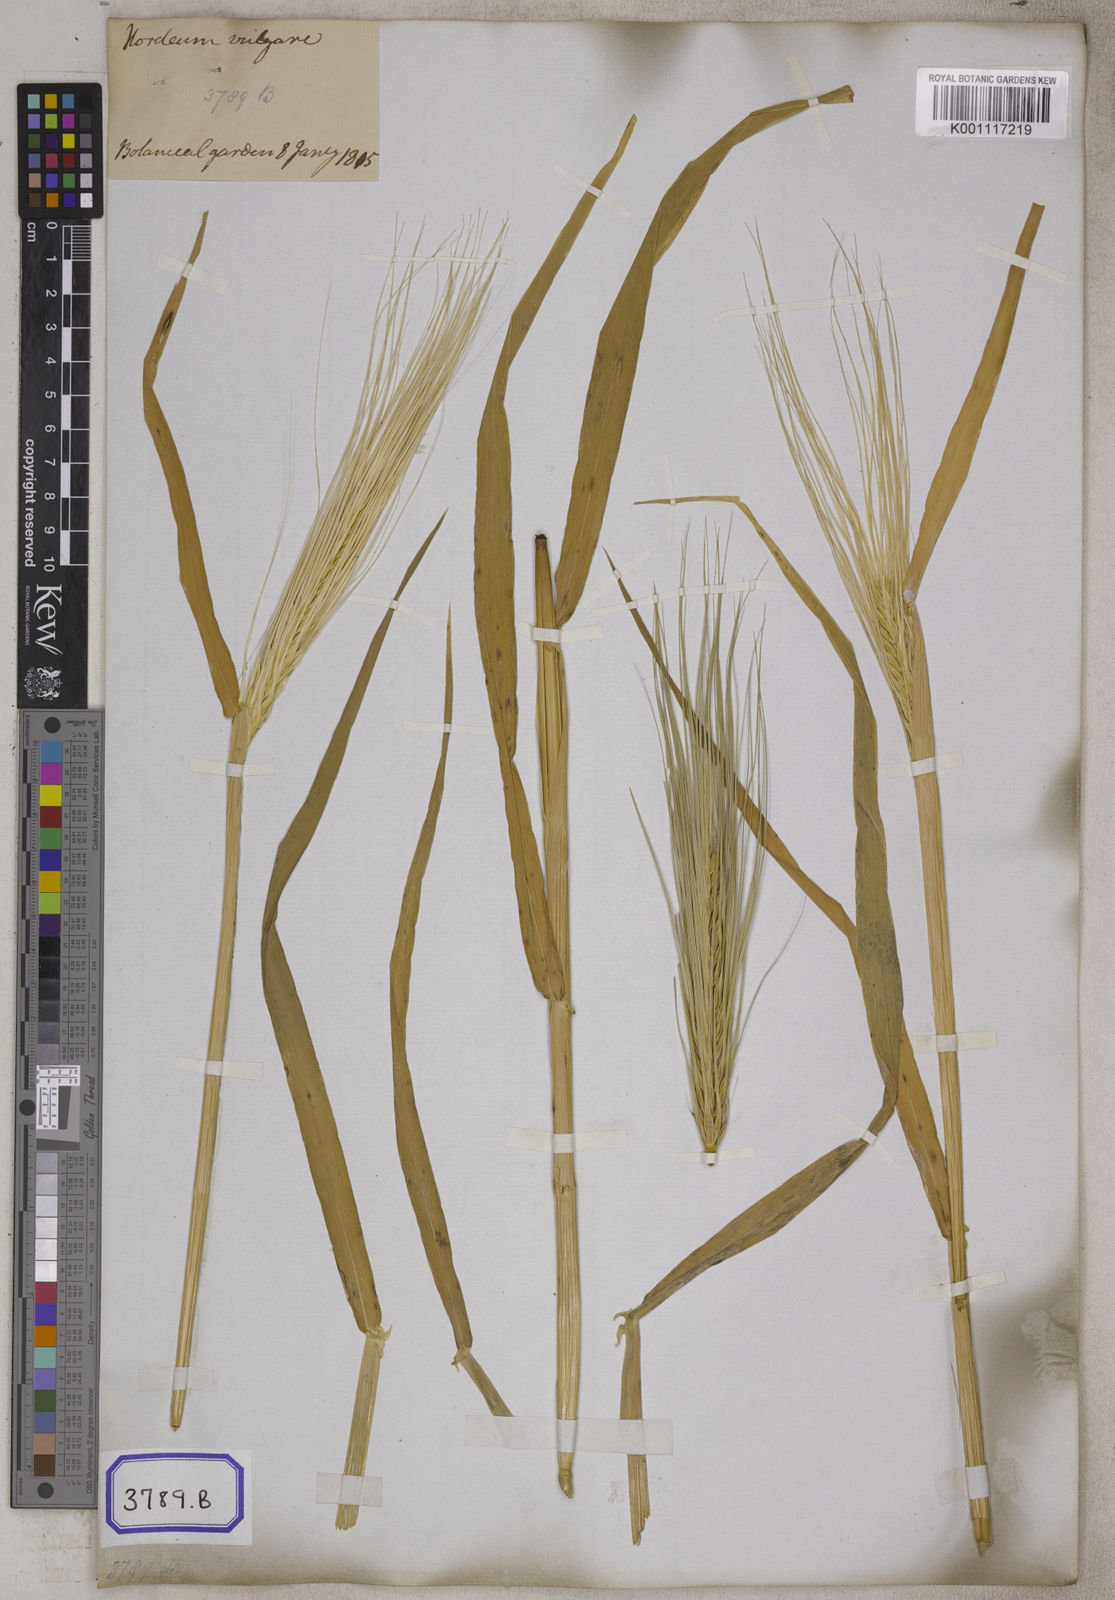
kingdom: Plantae
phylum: Tracheophyta
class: Liliopsida
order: Poales
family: Poaceae
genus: Hordeum
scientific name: Hordeum vulgare
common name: Common barley
